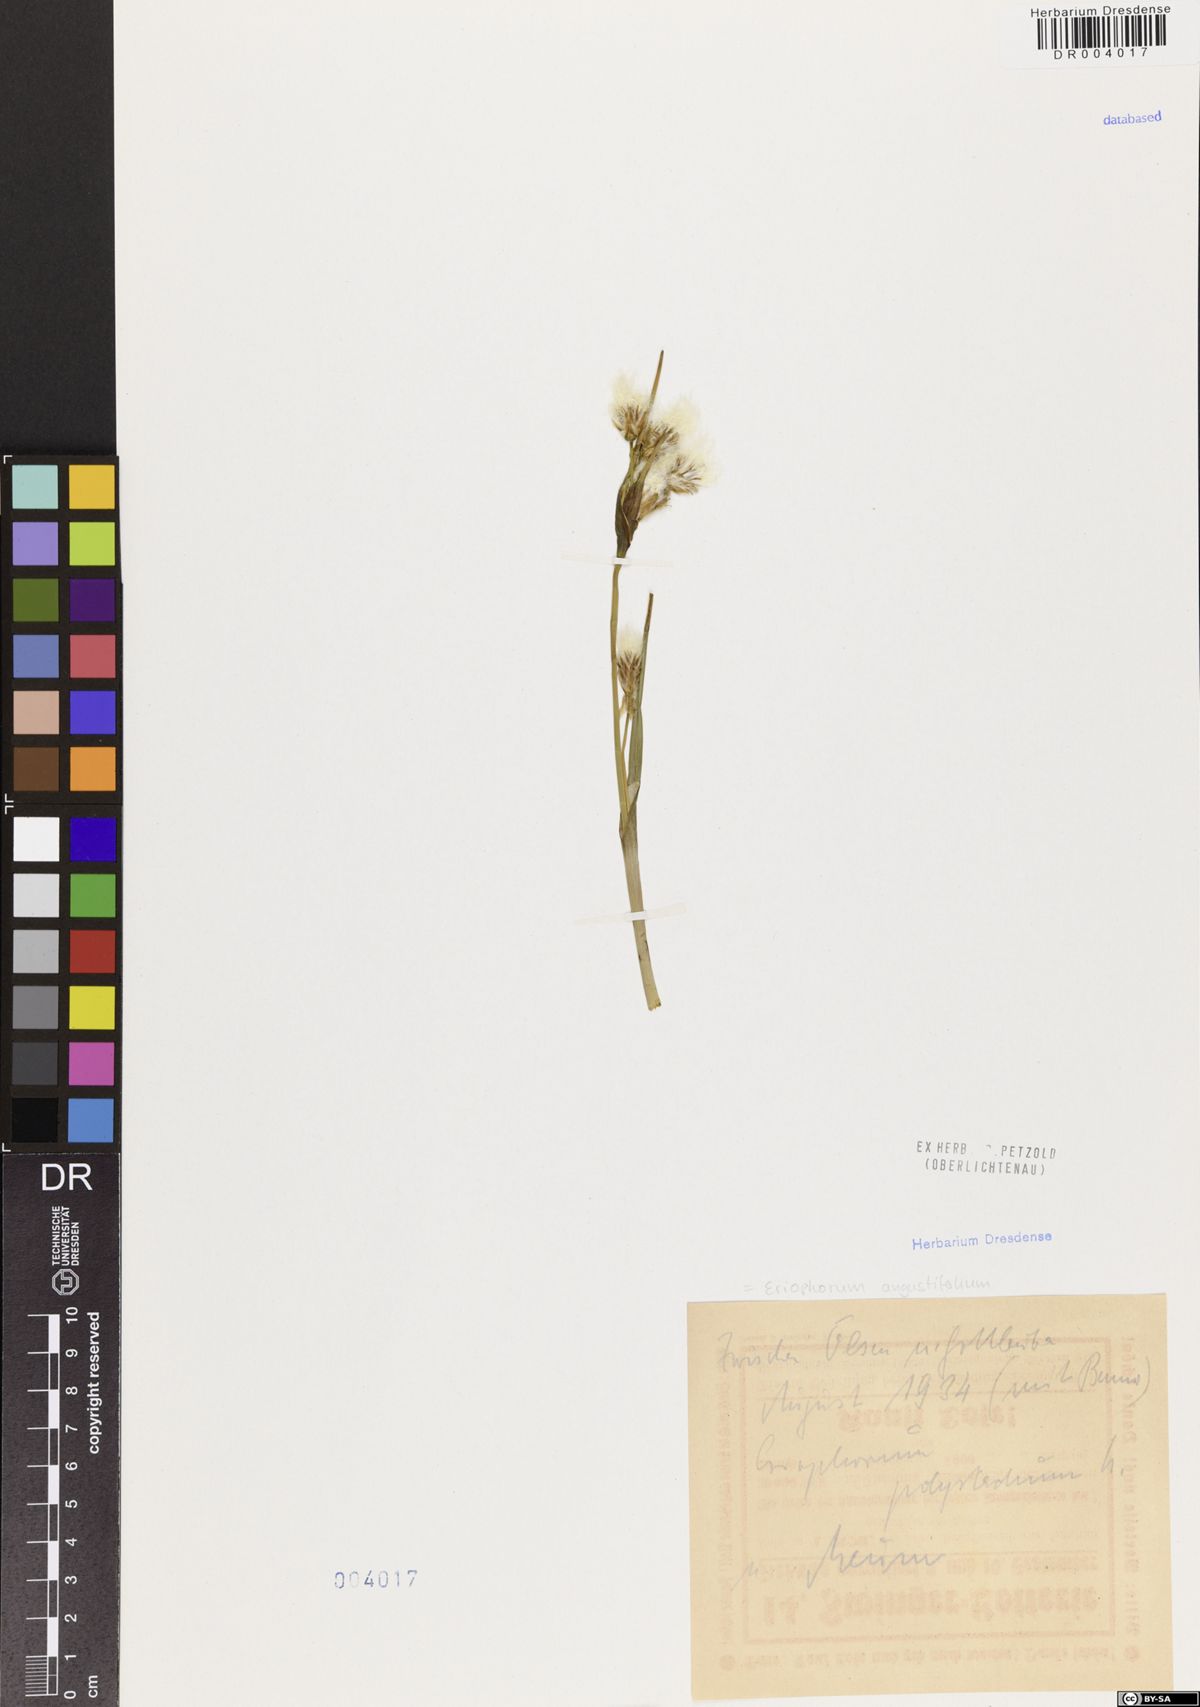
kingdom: Plantae
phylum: Tracheophyta
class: Liliopsida
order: Poales
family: Cyperaceae
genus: Eriophorum
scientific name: Eriophorum angustifolium
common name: Common cottongrass
